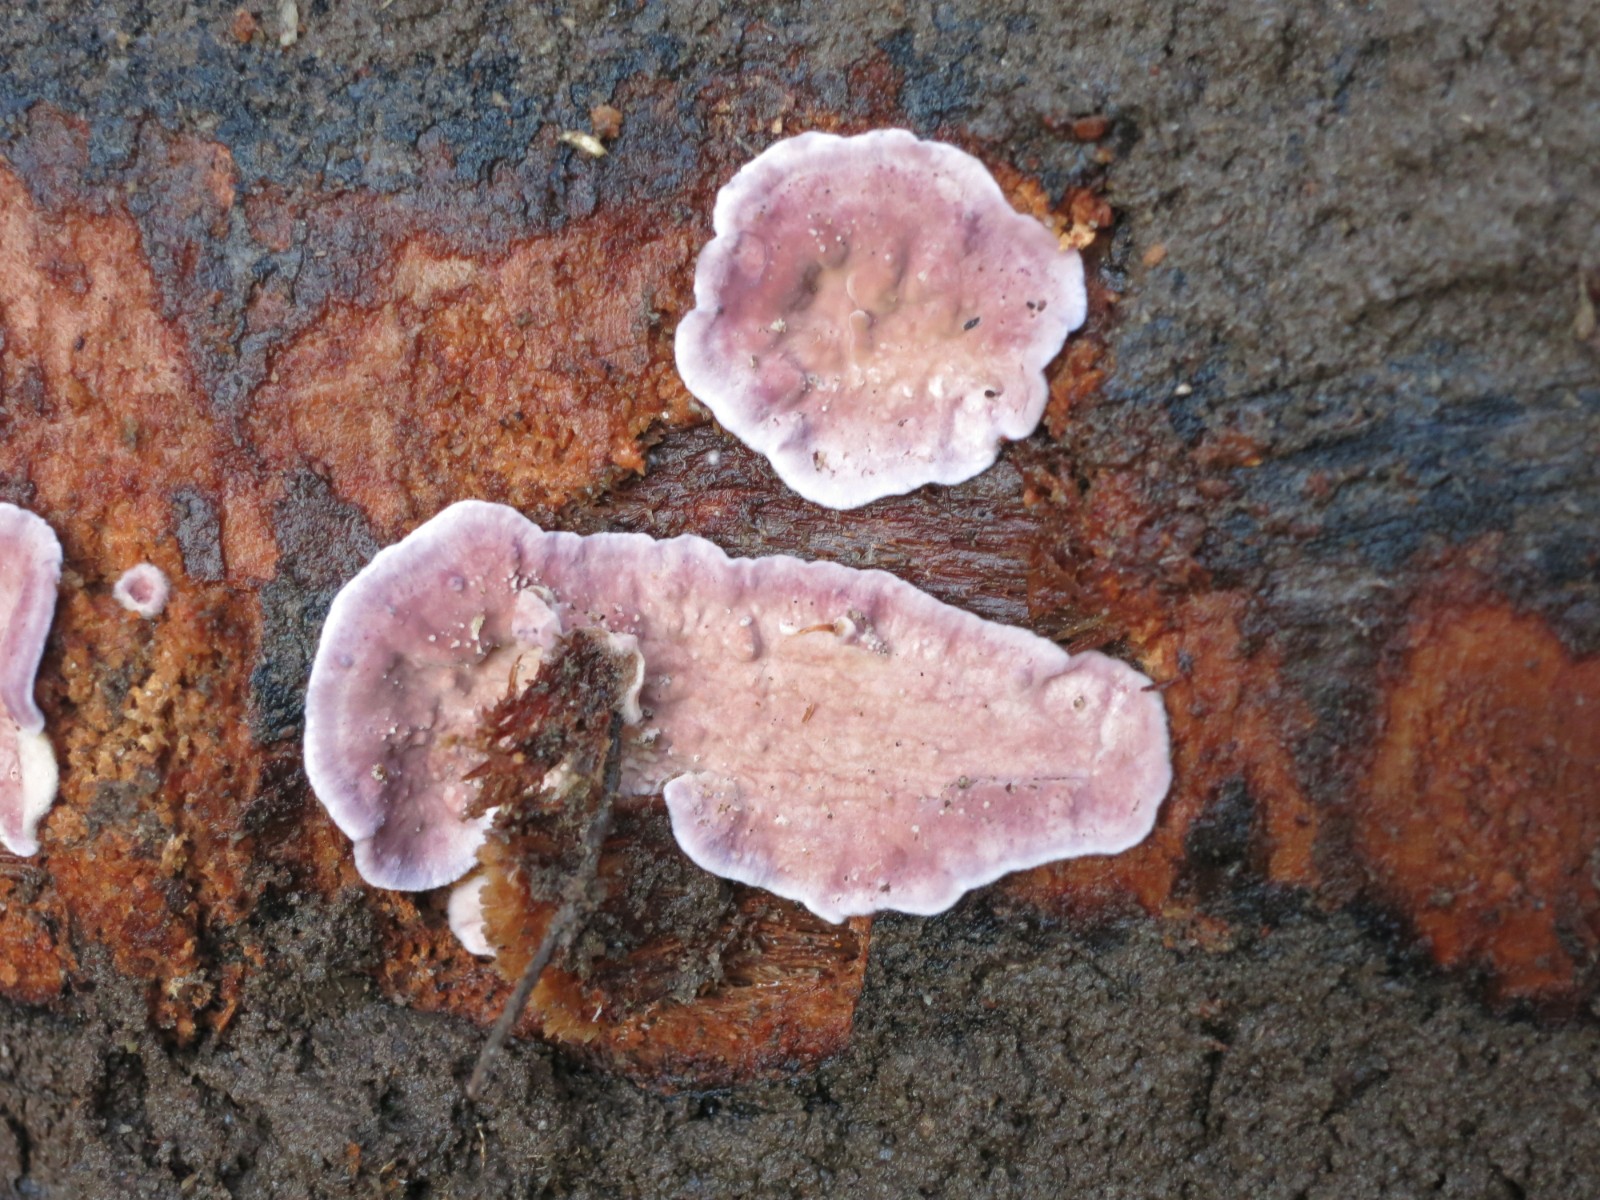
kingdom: Fungi
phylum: Basidiomycota
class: Agaricomycetes
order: Agaricales
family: Cyphellaceae
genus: Chondrostereum
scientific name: Chondrostereum purpureum
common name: purpurlædersvamp
